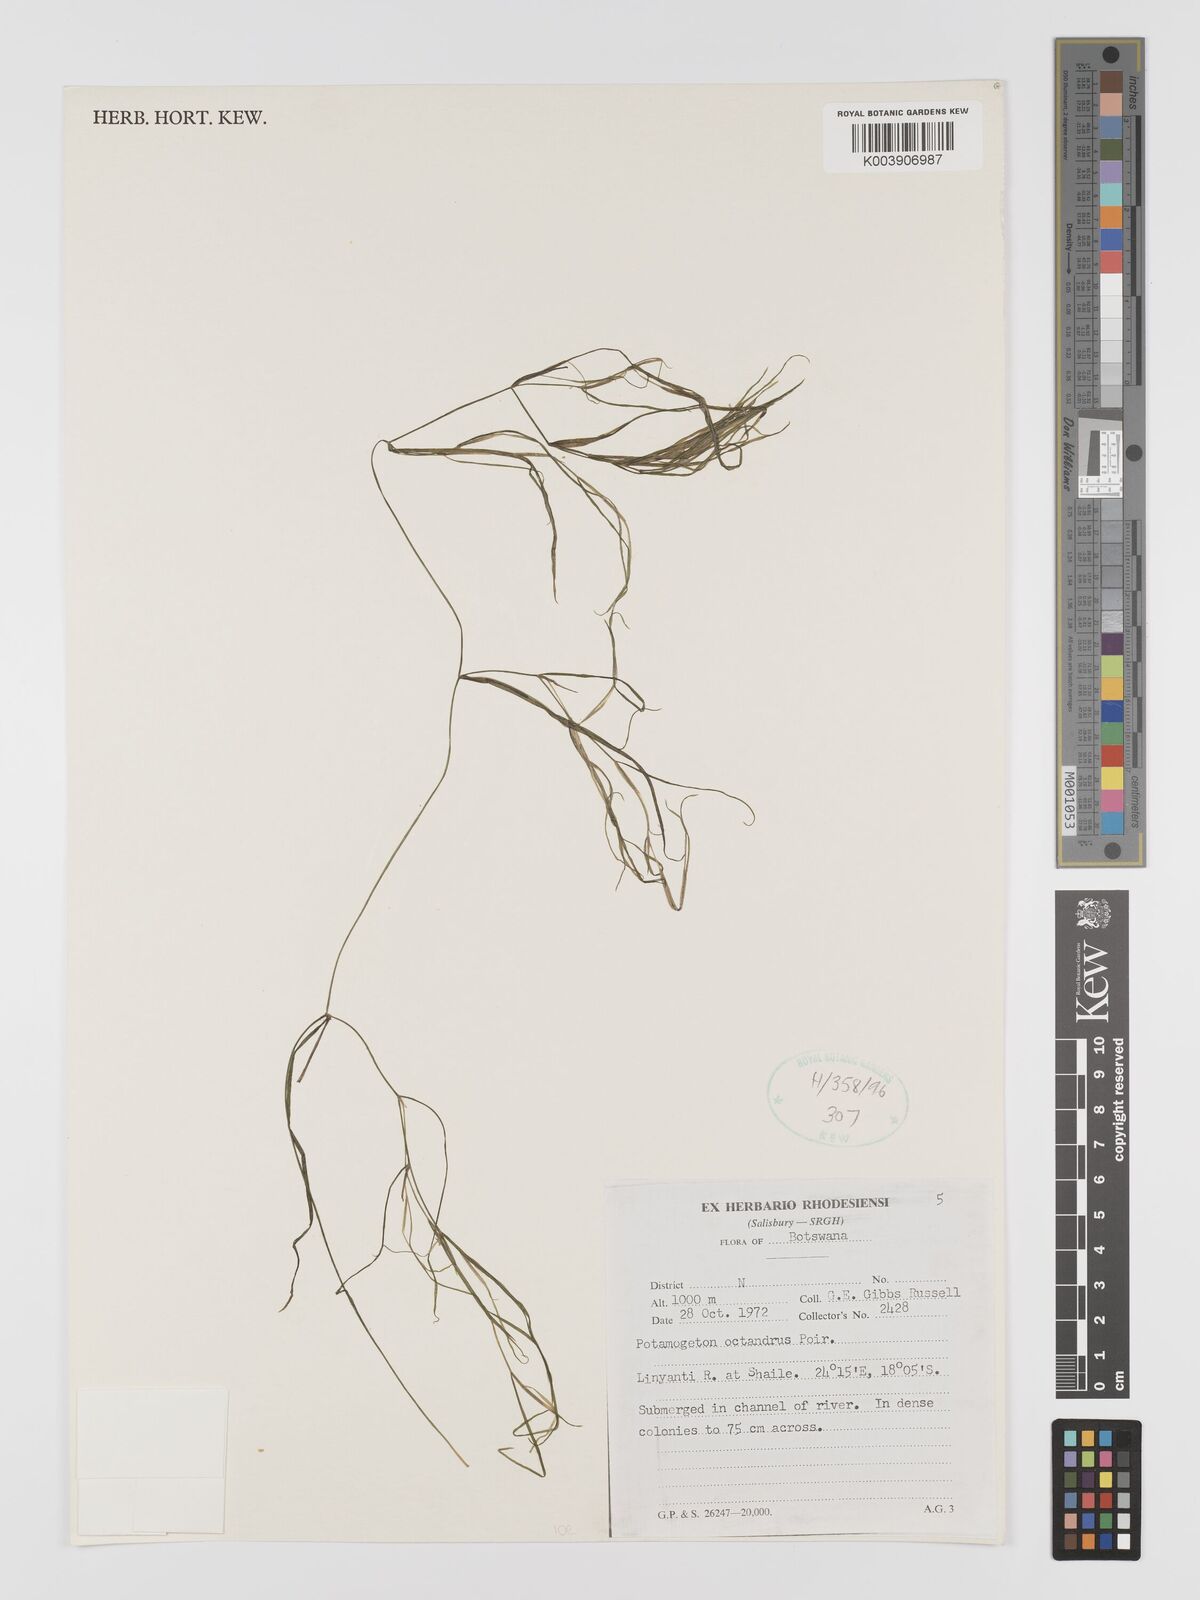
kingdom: Plantae
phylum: Tracheophyta
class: Liliopsida
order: Alismatales
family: Potamogetonaceae
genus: Potamogeton
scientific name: Potamogeton octandrus
